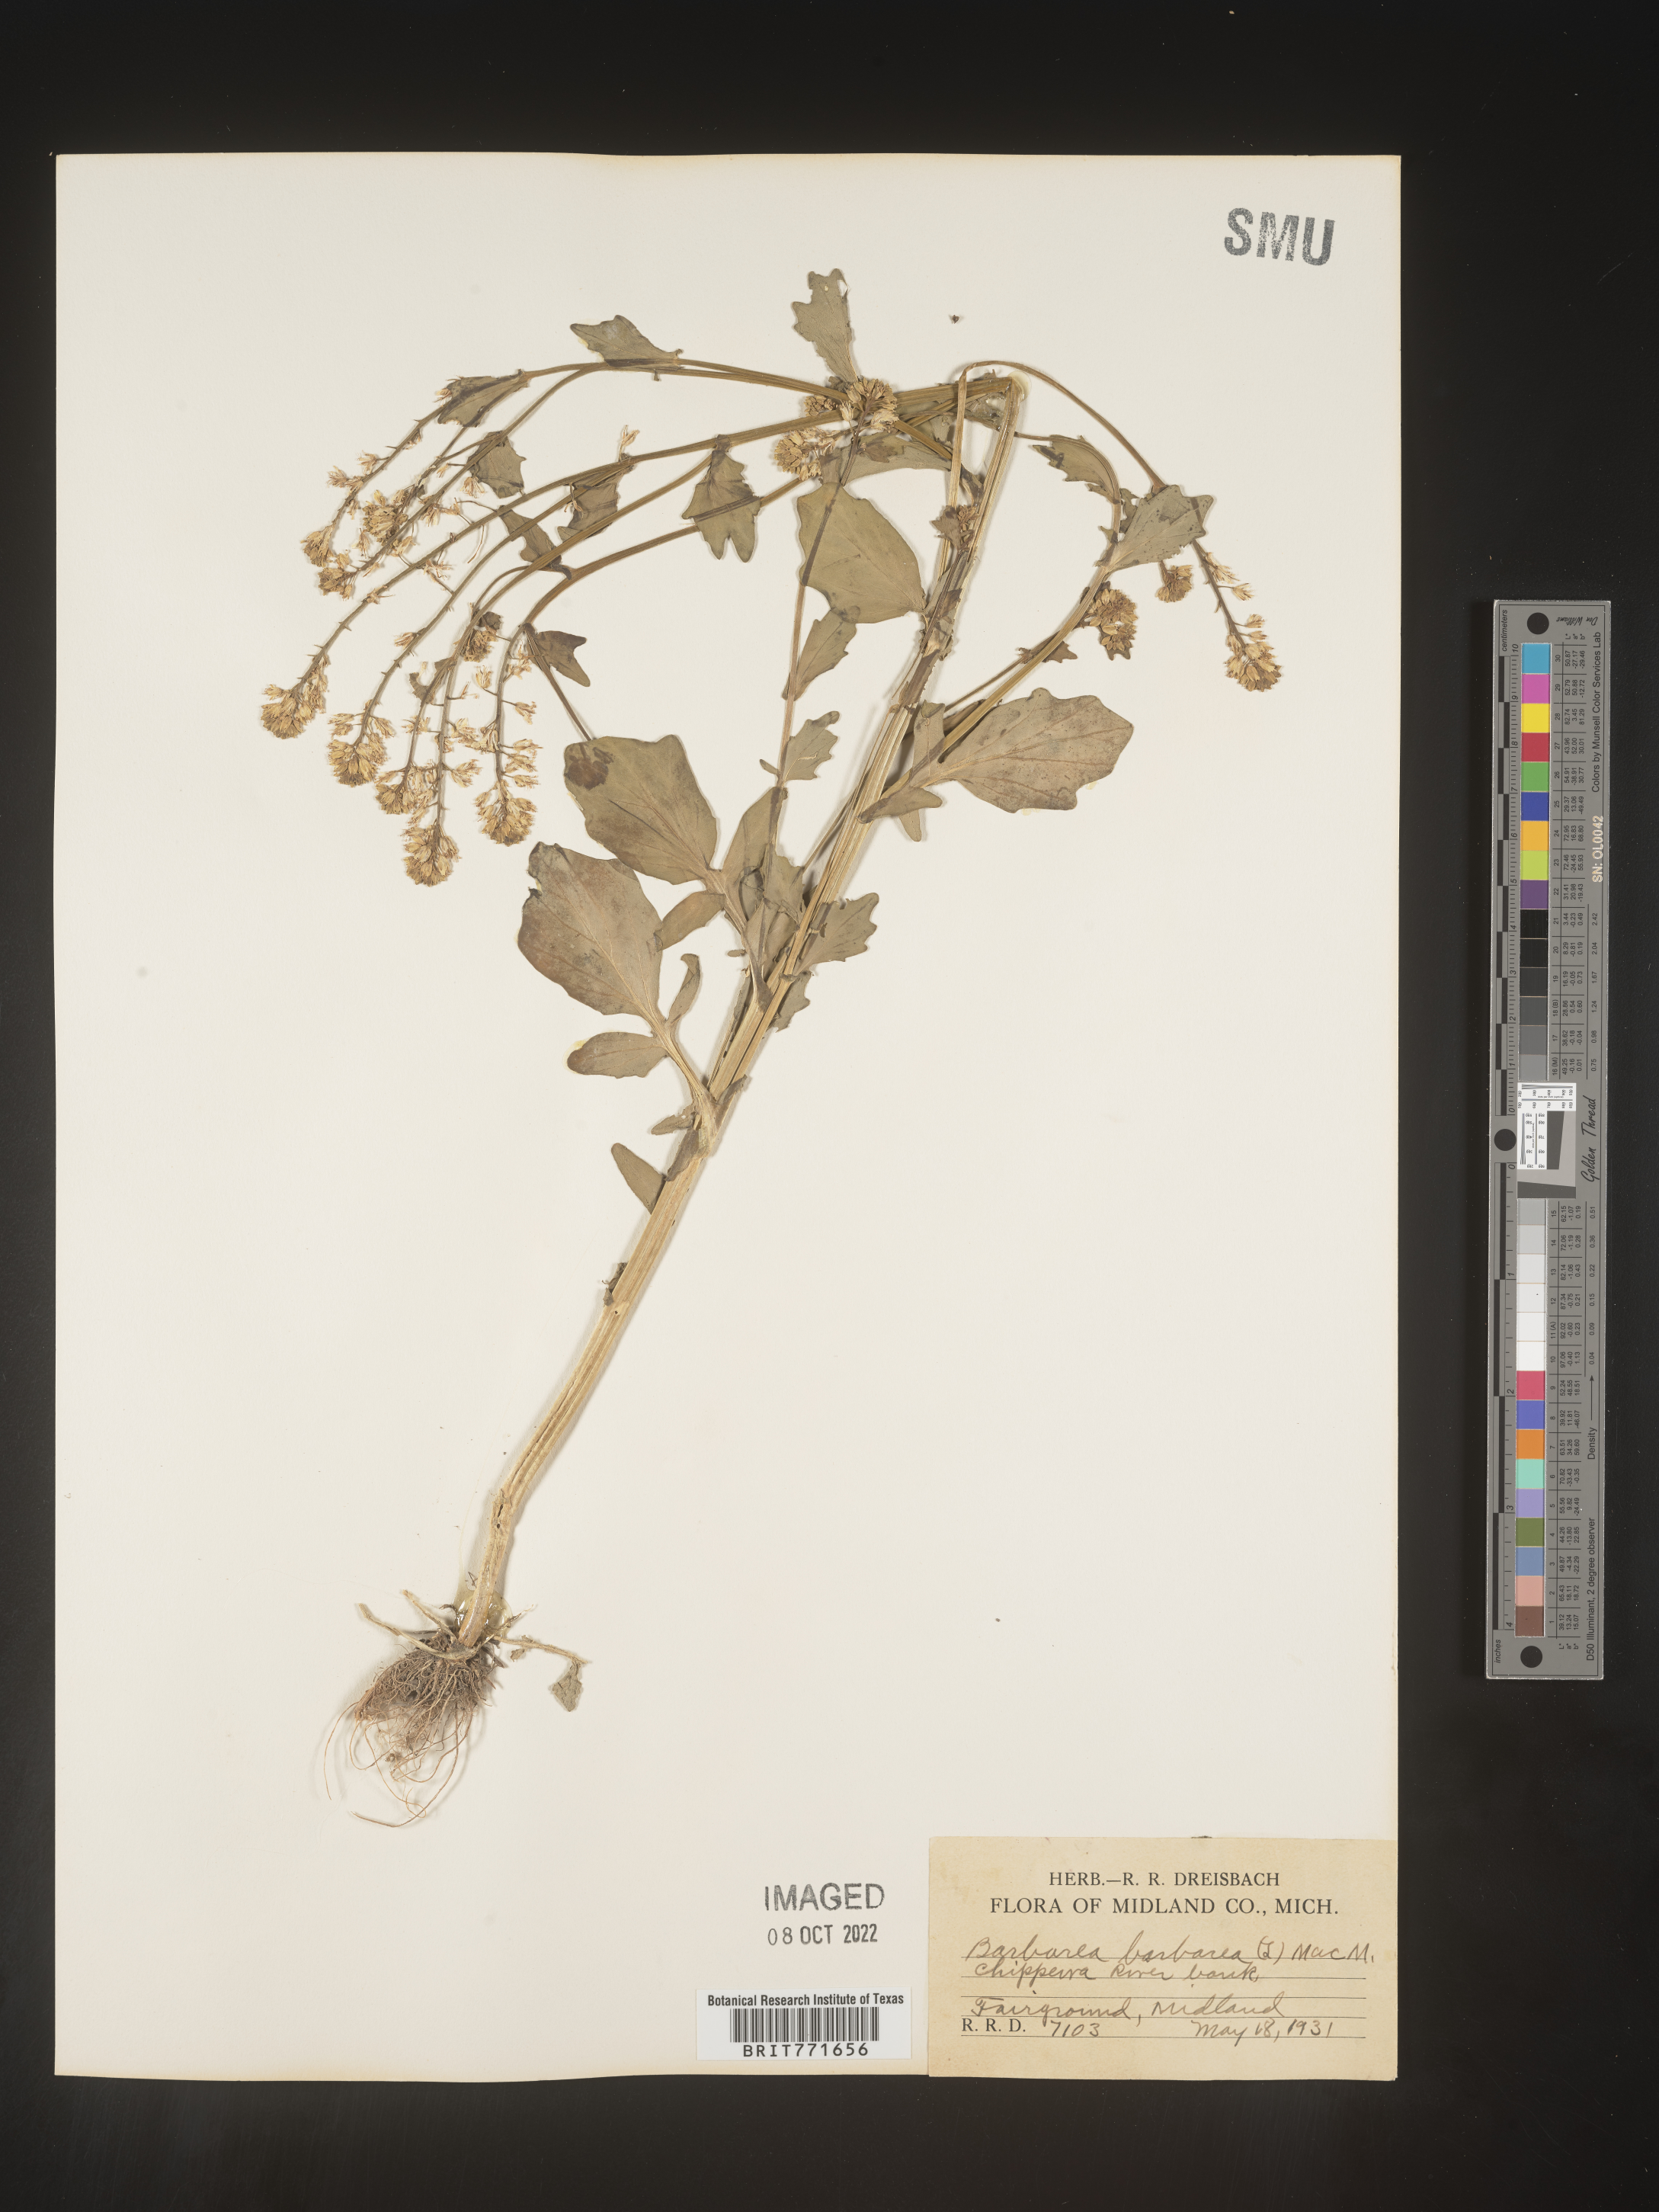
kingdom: Plantae
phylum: Tracheophyta
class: Magnoliopsida
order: Brassicales
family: Brassicaceae
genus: Barbarea
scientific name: Barbarea
